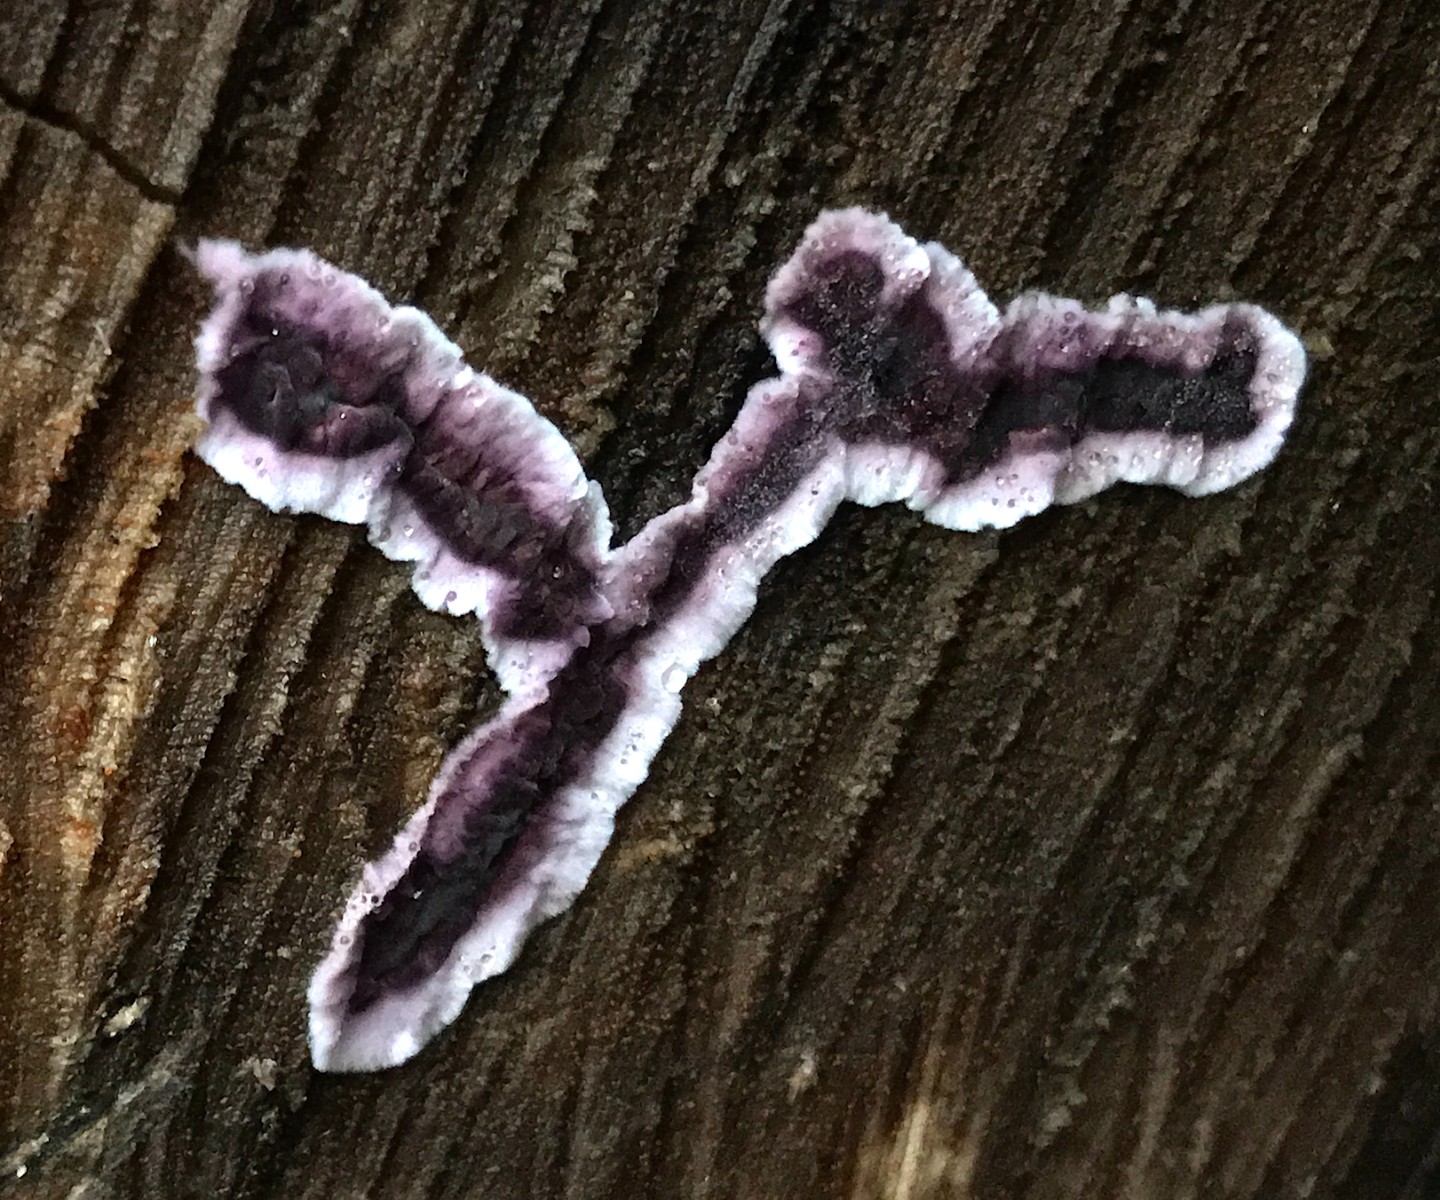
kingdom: Fungi
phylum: Basidiomycota
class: Agaricomycetes
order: Agaricales
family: Cyphellaceae
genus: Chondrostereum
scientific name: Chondrostereum purpureum
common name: purpurlædersvamp
